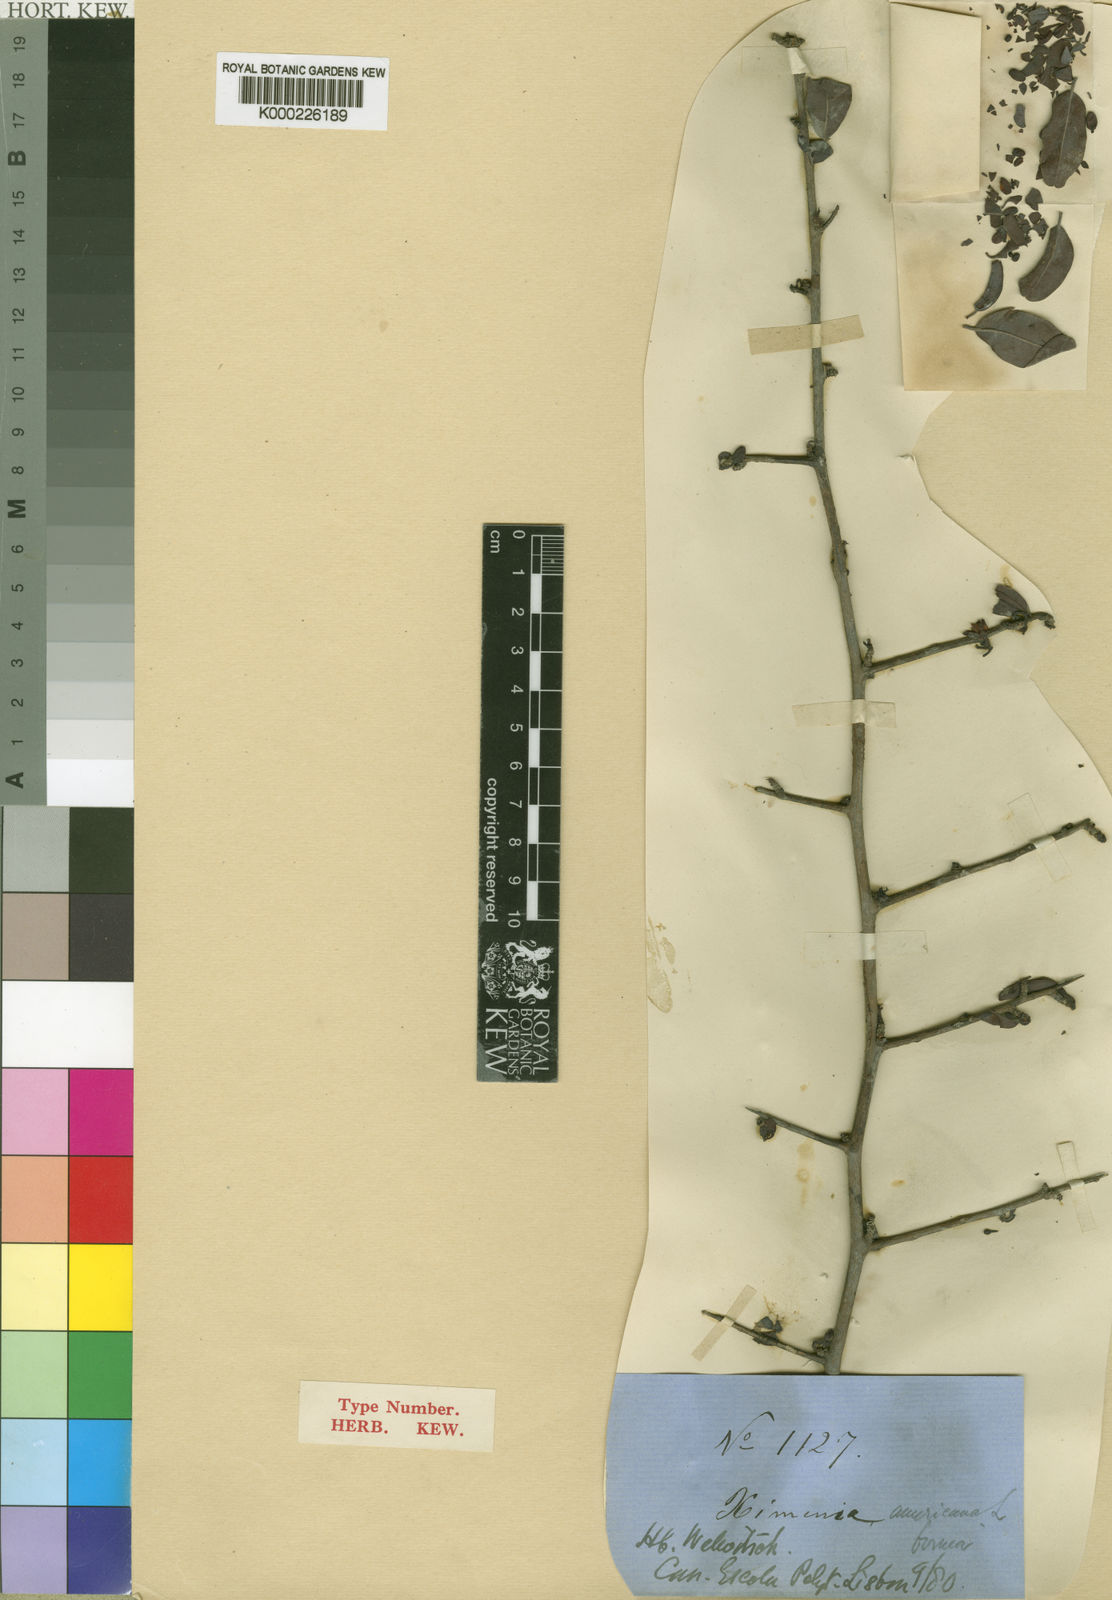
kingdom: Plantae
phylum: Tracheophyta
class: Magnoliopsida
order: Santalales
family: Ximeniaceae
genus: Ximenia
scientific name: Ximenia americana
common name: Tallowwood
